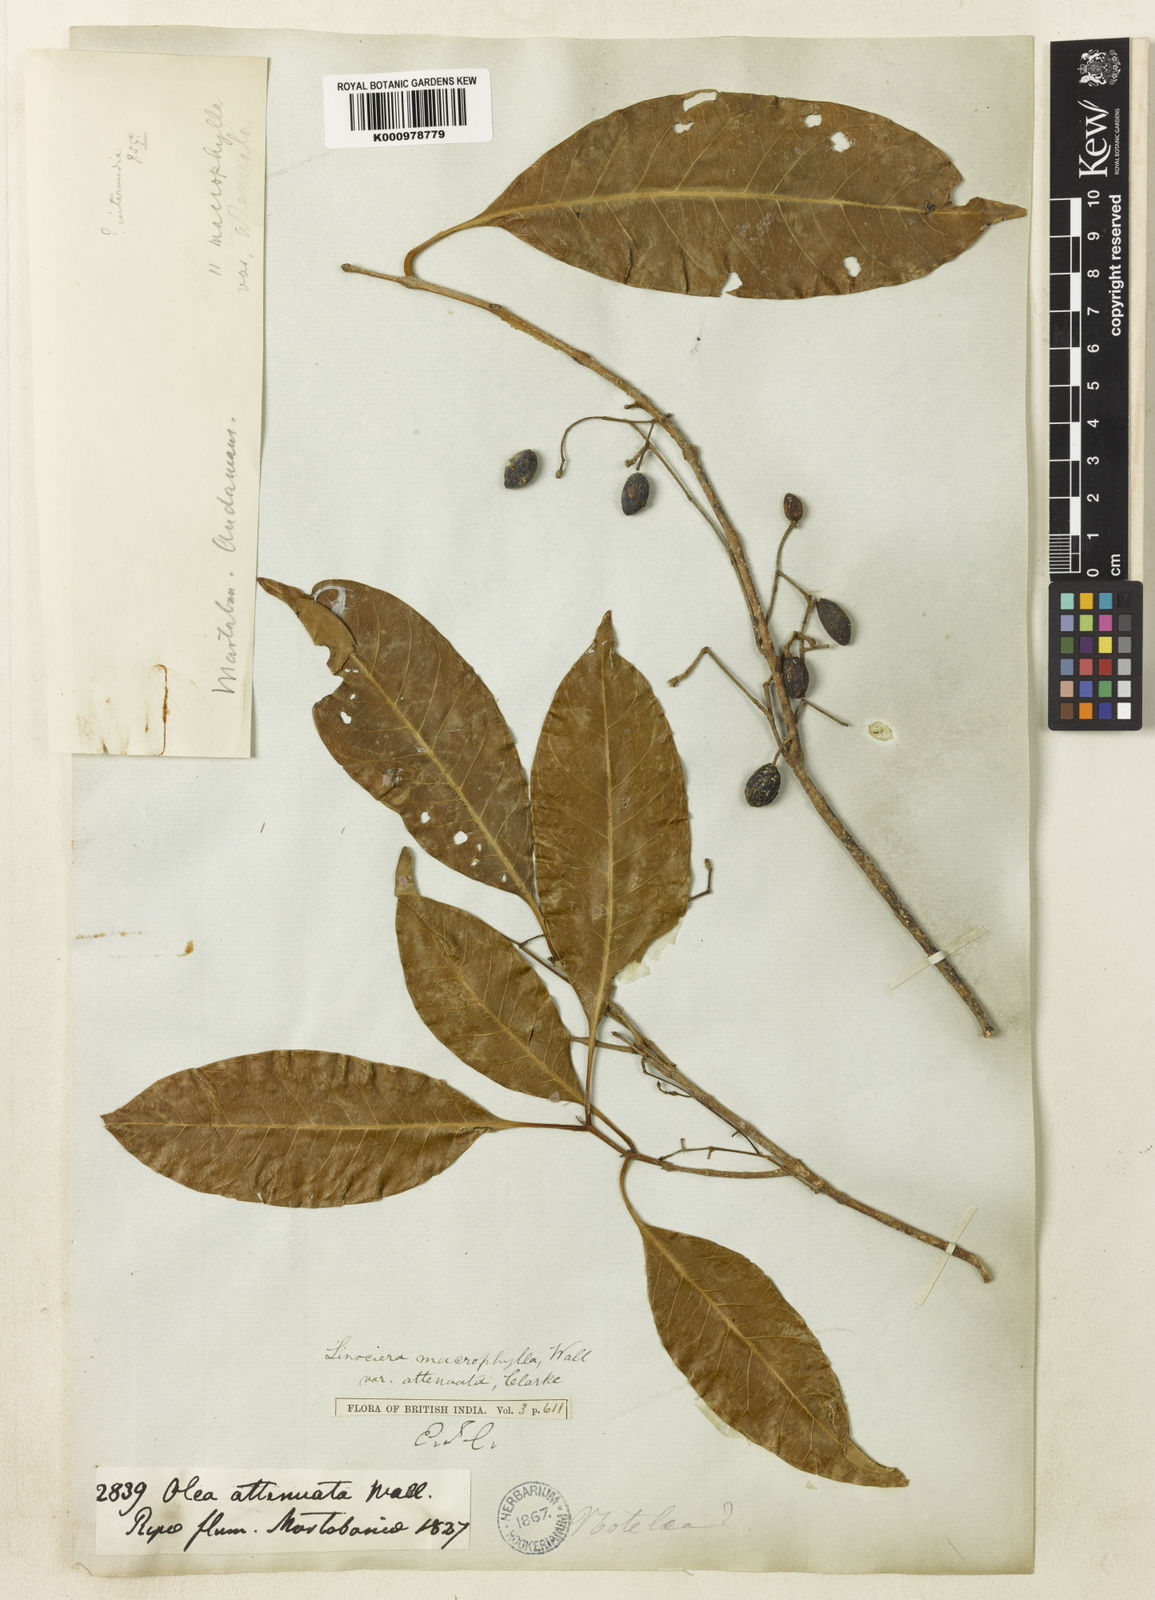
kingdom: Plantae
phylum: Tracheophyta
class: Magnoliopsida
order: Lamiales
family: Oleaceae
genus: Chionanthus
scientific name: Chionanthus ramiflorus
